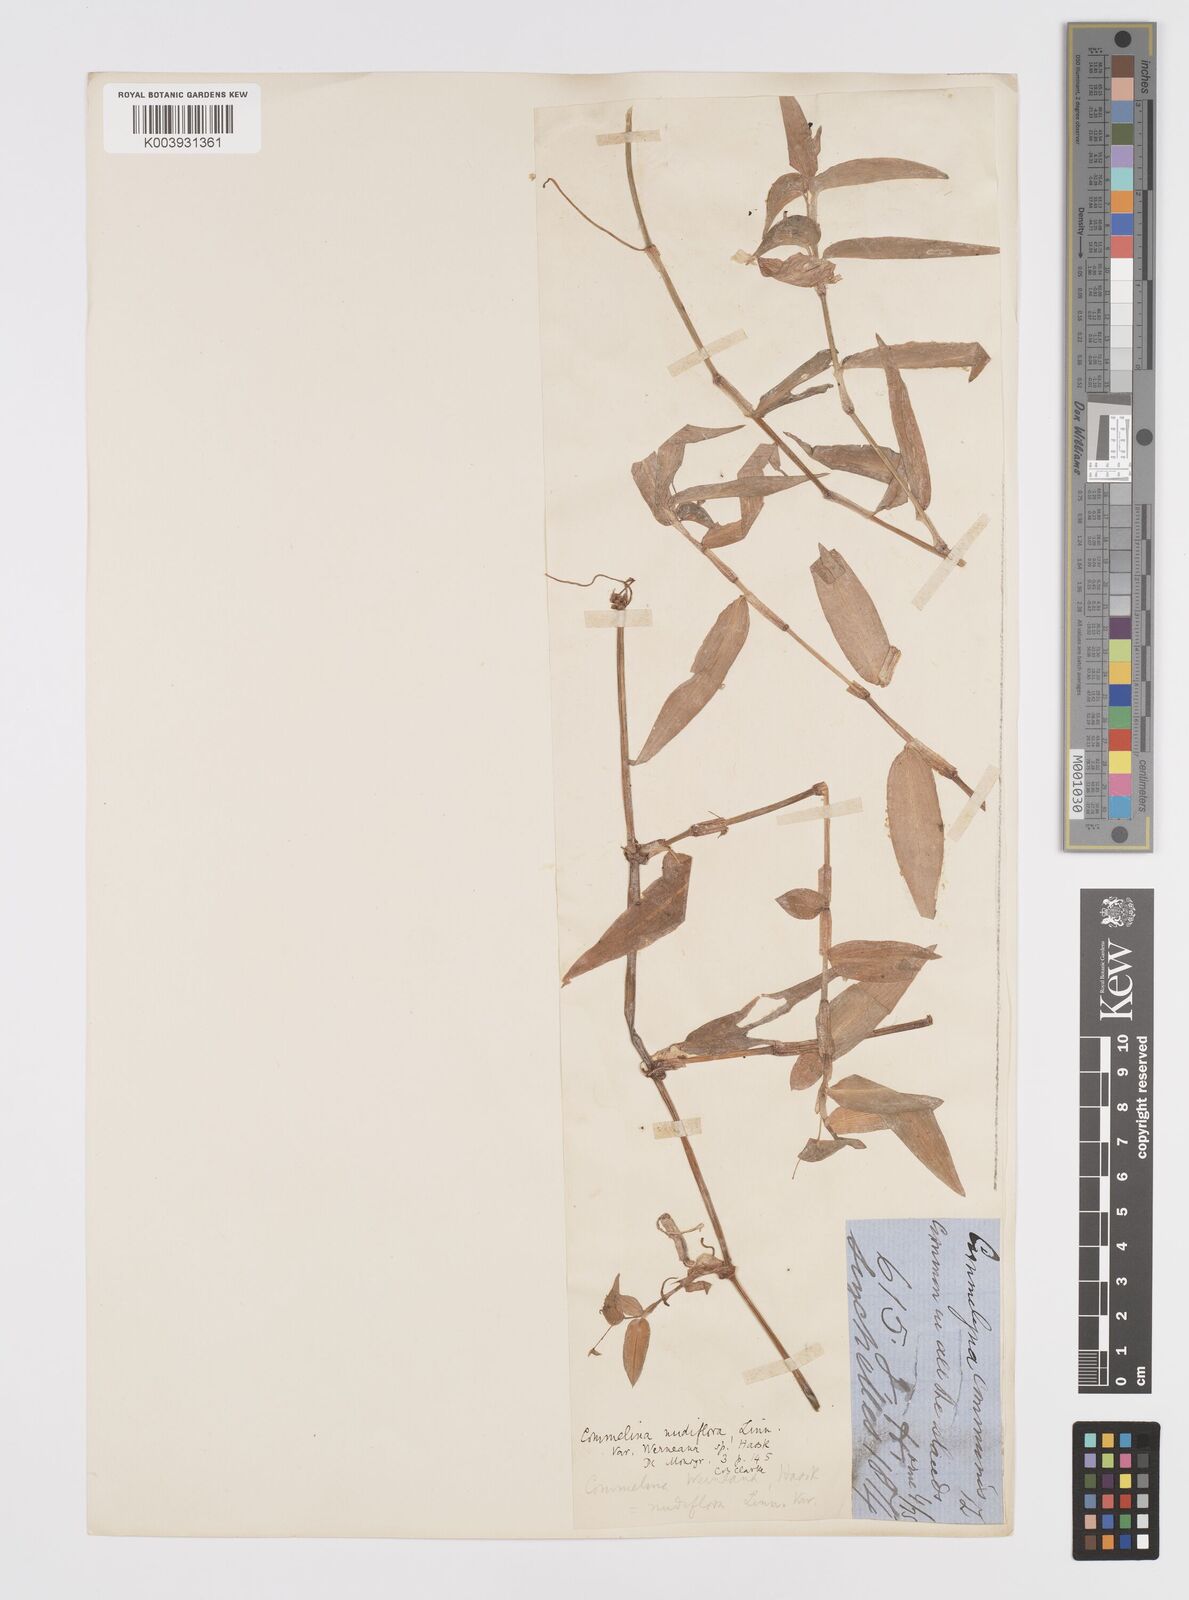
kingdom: Plantae
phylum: Tracheophyta
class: Liliopsida
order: Commelinales
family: Commelinaceae
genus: Murdannia
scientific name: Murdannia nudiflora
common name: Nakedstem dewflower
